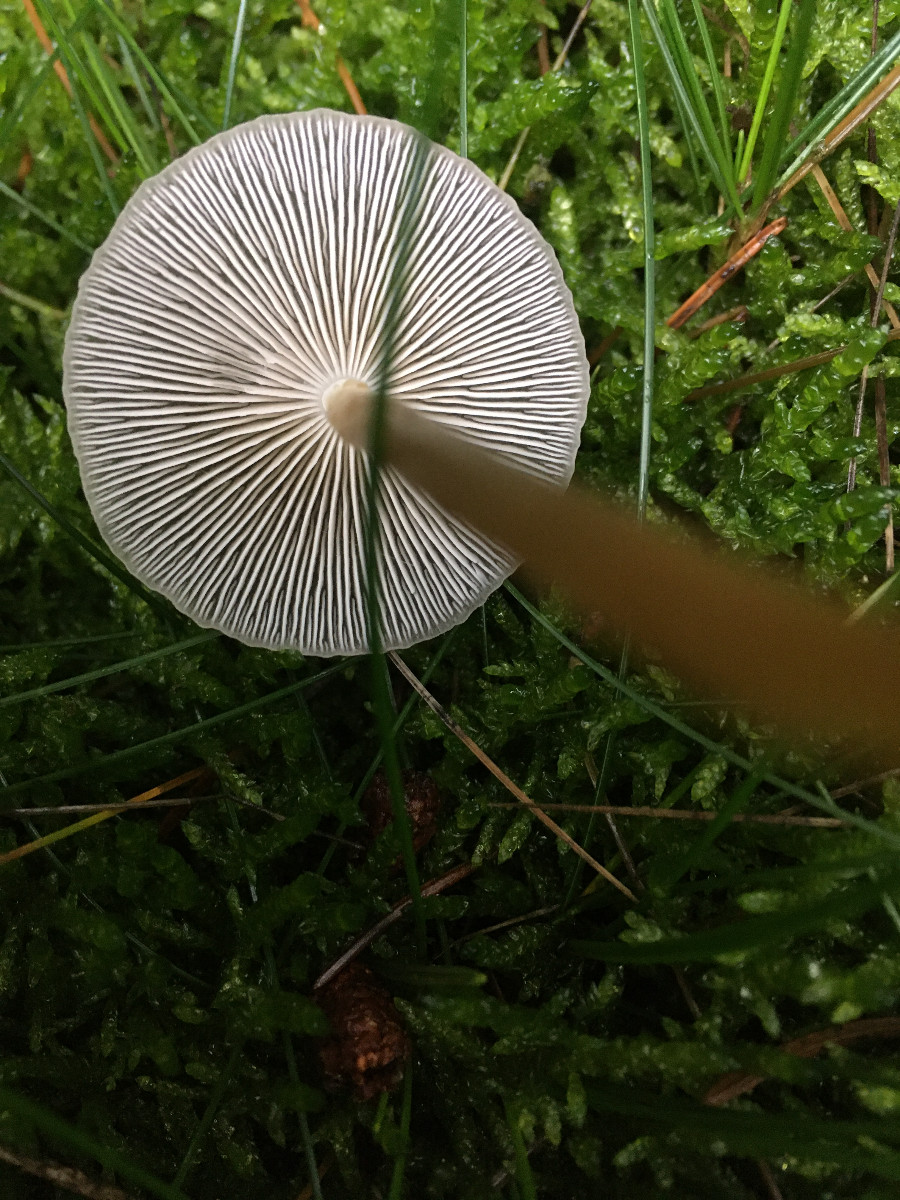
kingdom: Fungi
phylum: Basidiomycota
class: Agaricomycetes
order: Agaricales
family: Physalacriaceae
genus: Strobilurus
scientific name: Strobilurus esculentus
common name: gran-koglehat
